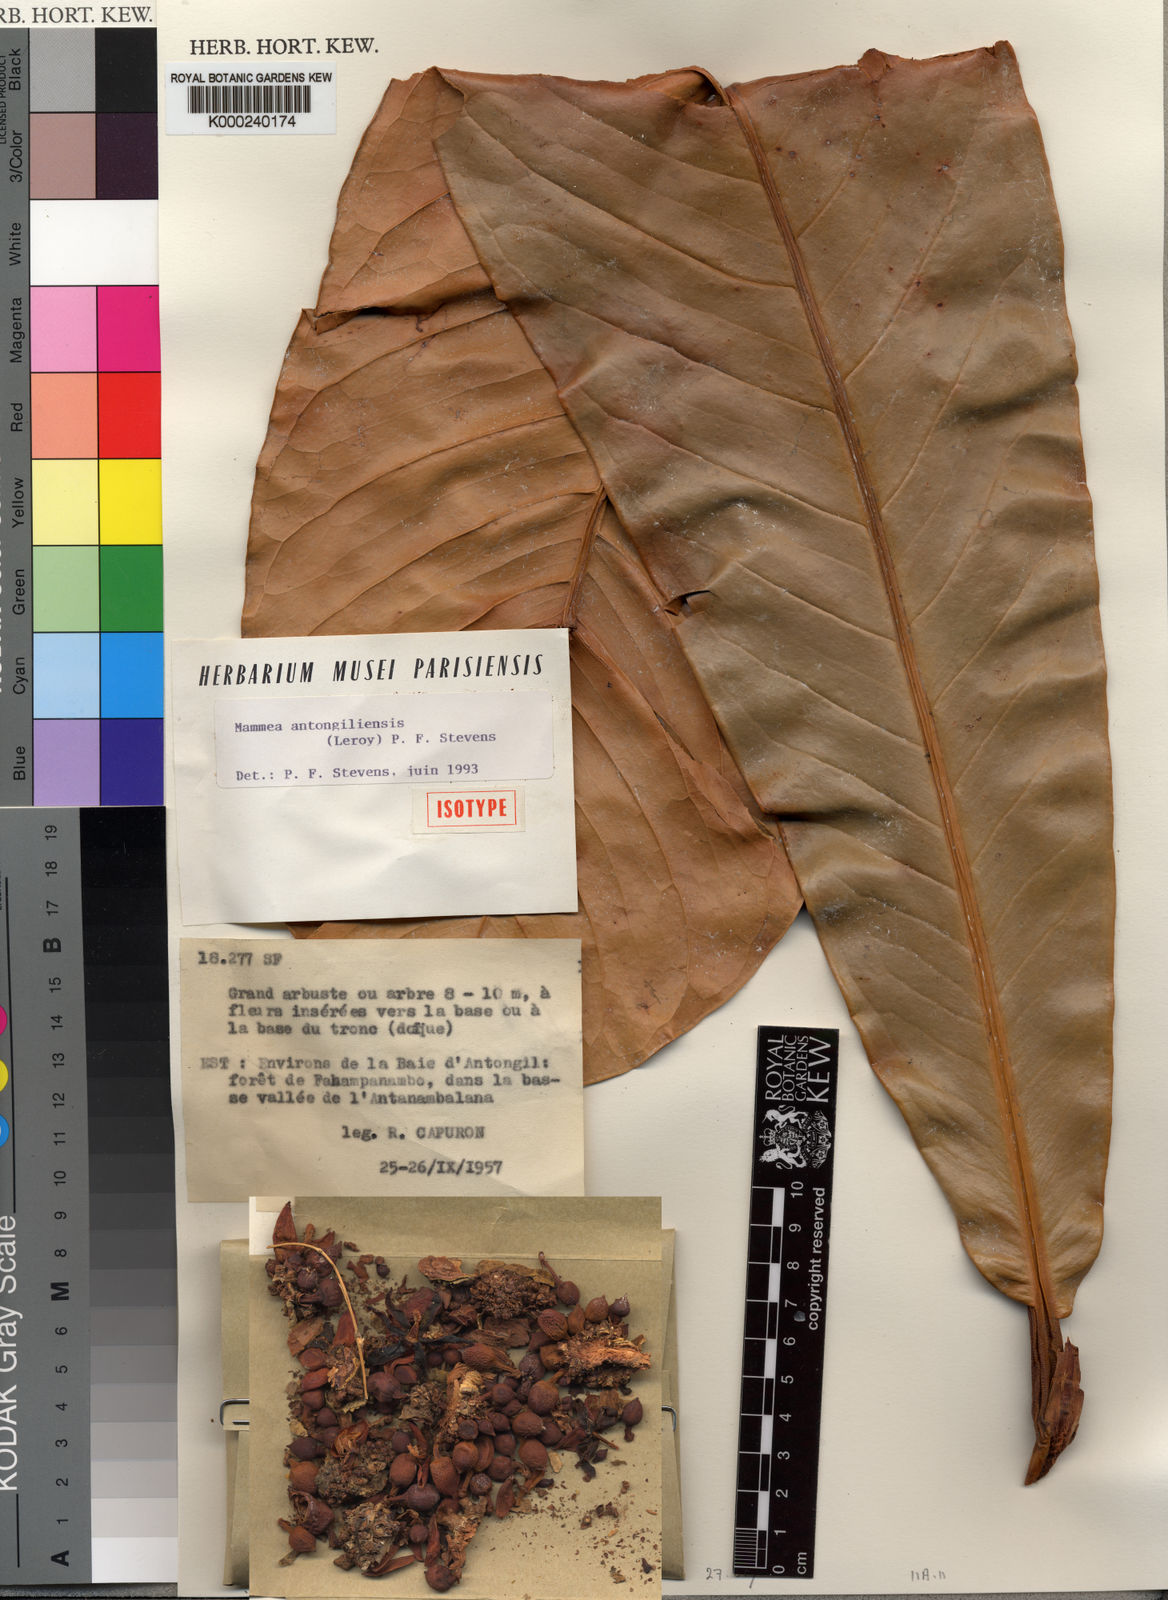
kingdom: Plantae
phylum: Tracheophyta
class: Magnoliopsida
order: Malpighiales
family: Calophyllaceae
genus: Mammea
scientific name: Mammea
